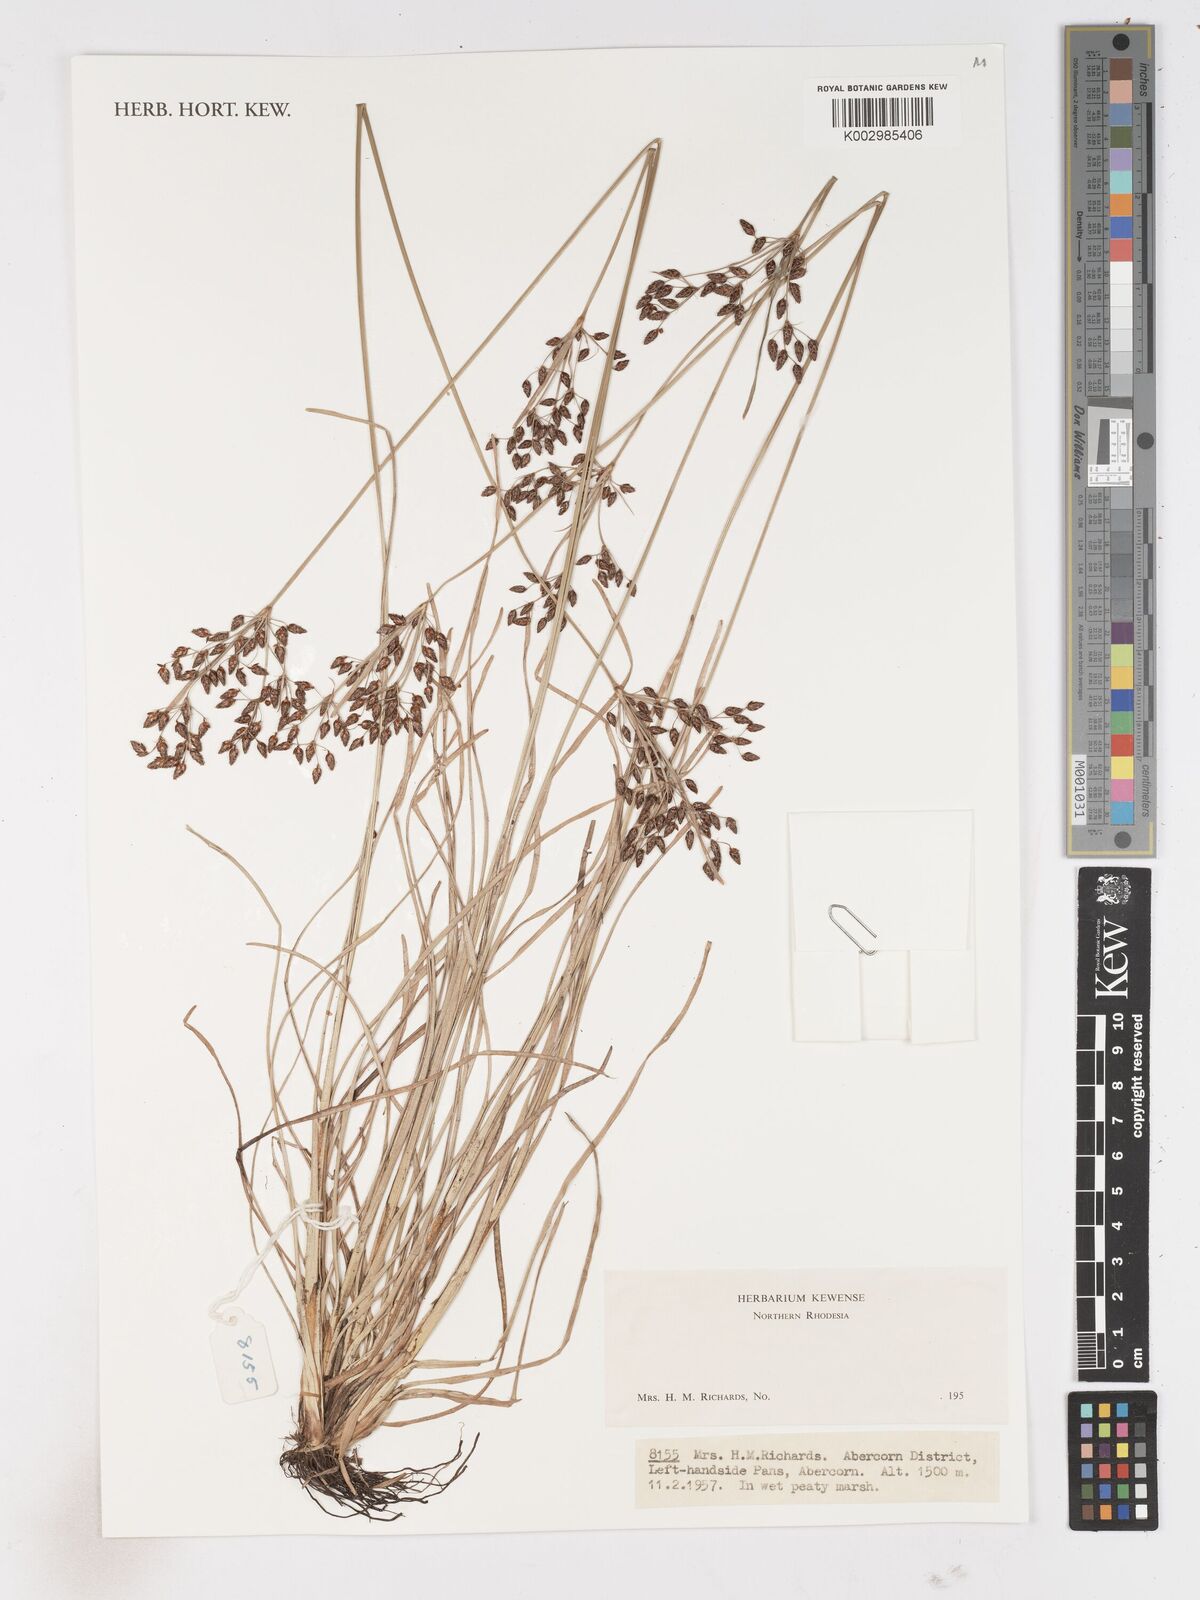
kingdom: Plantae
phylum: Tracheophyta
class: Liliopsida
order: Poales
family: Cyperaceae
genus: Fimbristylis
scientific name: Fimbristylis
